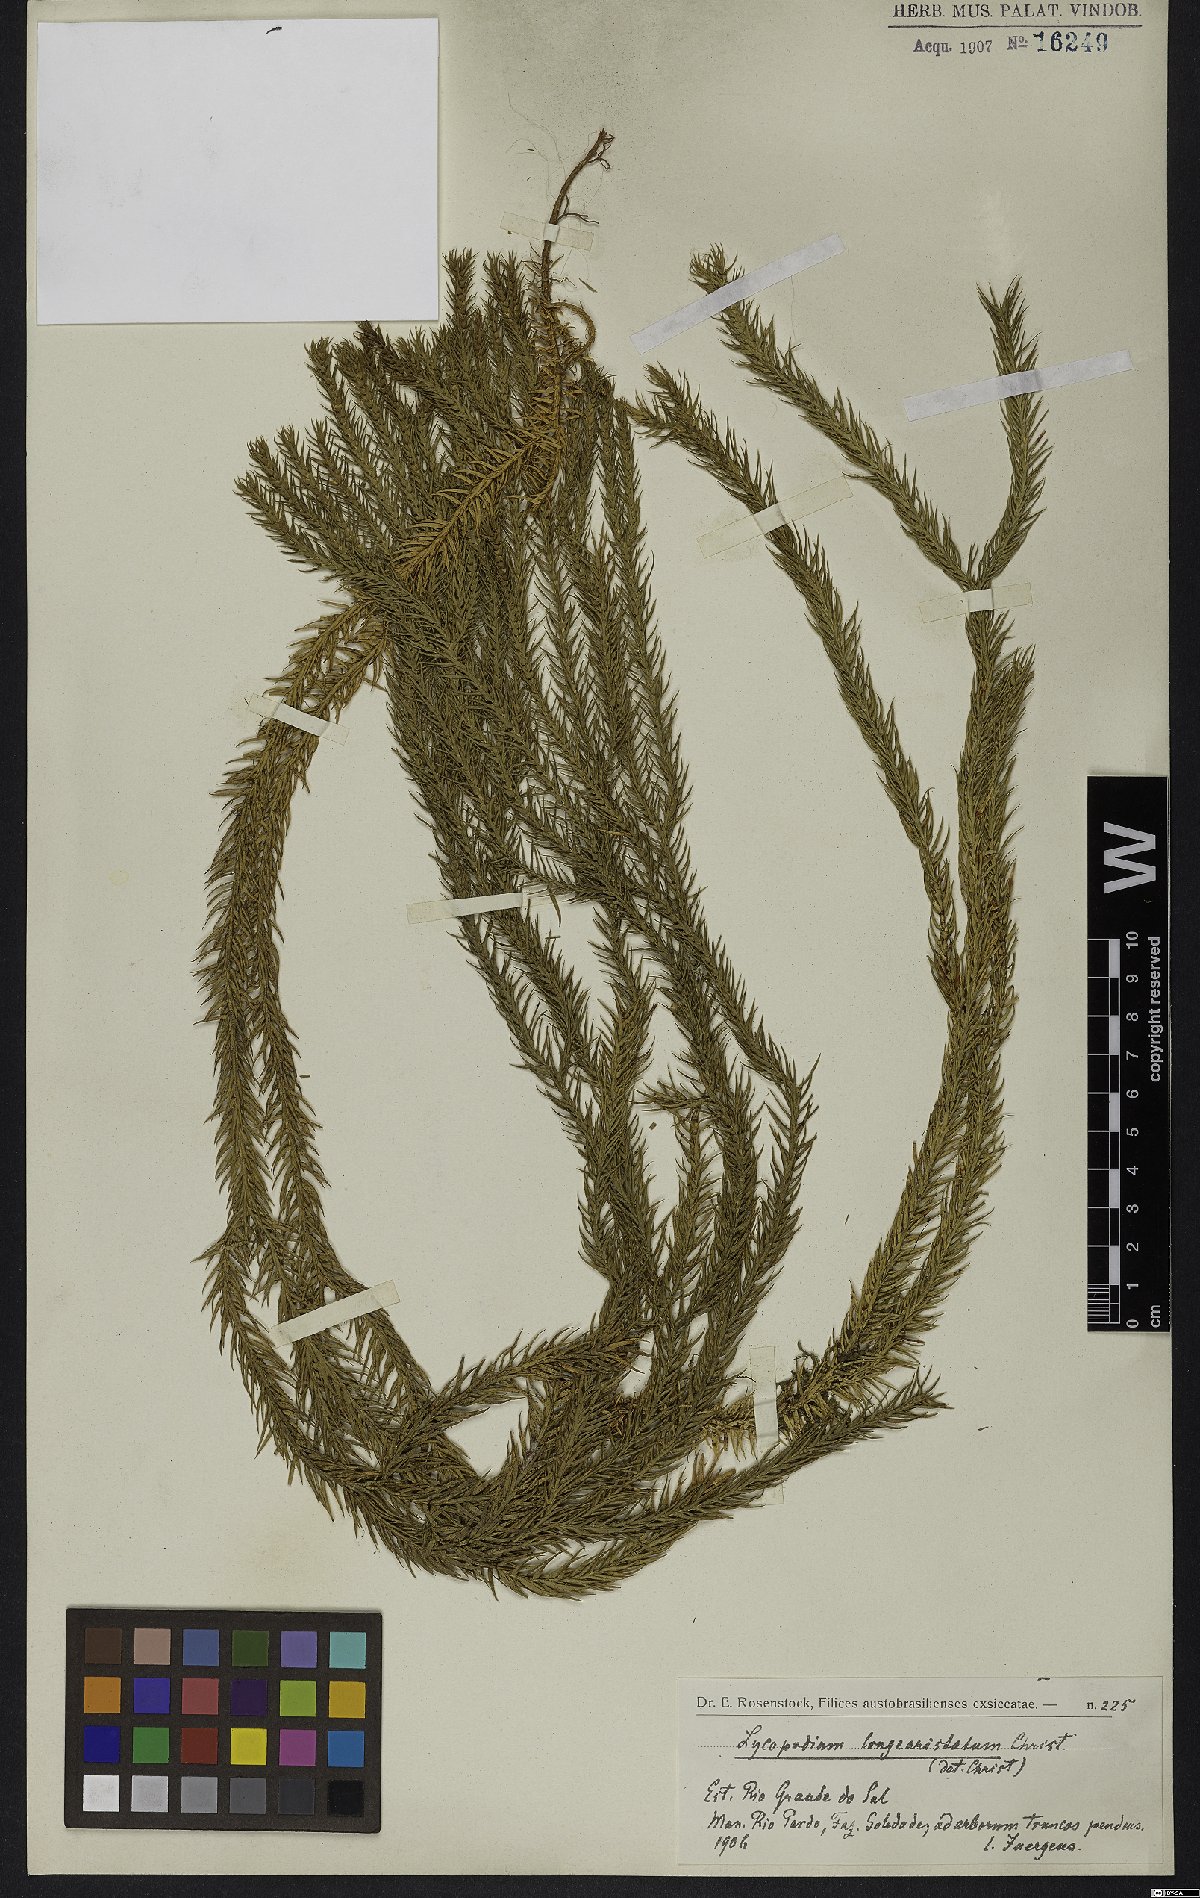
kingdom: Plantae
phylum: Tracheophyta
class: Lycopodiopsida
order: Lycopodiales
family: Lycopodiaceae
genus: Phlegmariurus
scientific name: Phlegmariurus heterocarpos
